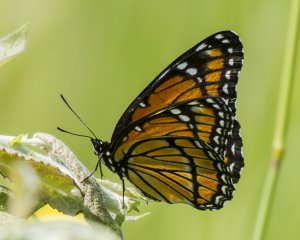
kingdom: Animalia
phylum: Arthropoda
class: Insecta
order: Lepidoptera
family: Nymphalidae
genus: Limenitis
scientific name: Limenitis archippus
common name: Viceroy
